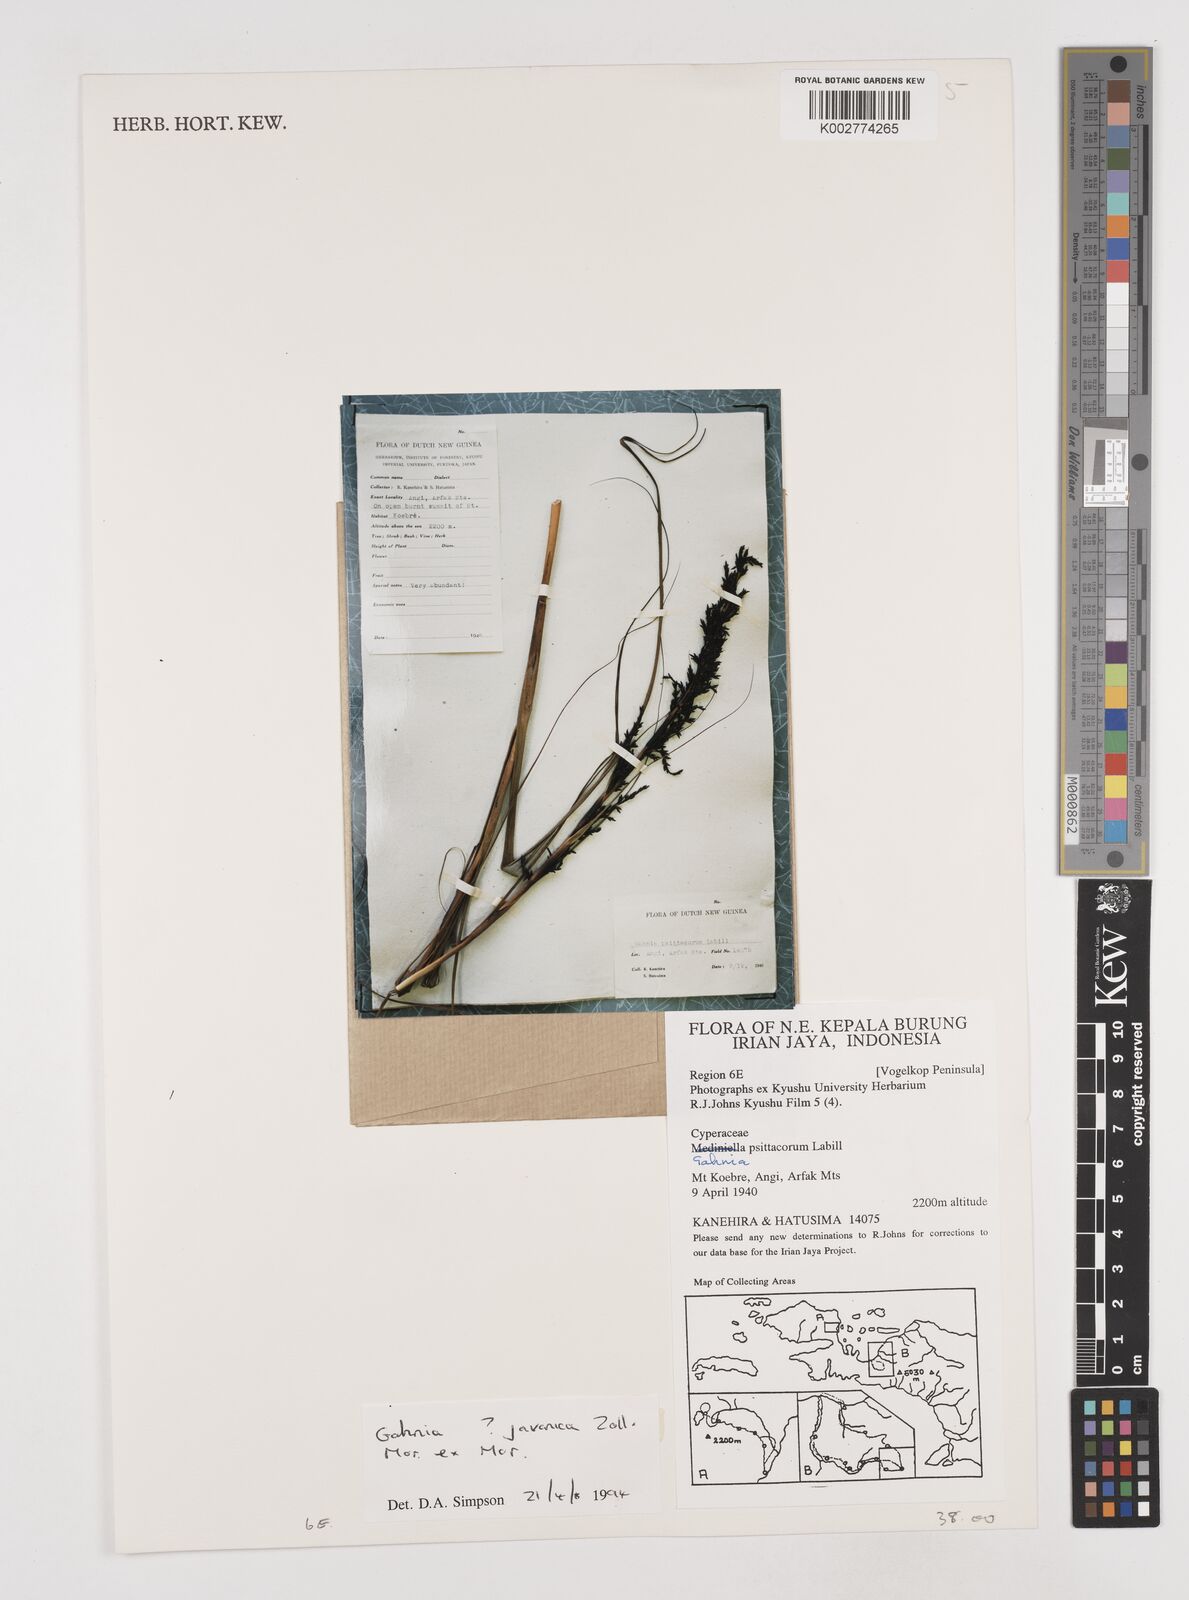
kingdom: Plantae
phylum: Tracheophyta
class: Liliopsida
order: Poales
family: Cyperaceae
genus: Gahnia
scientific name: Gahnia javanica
